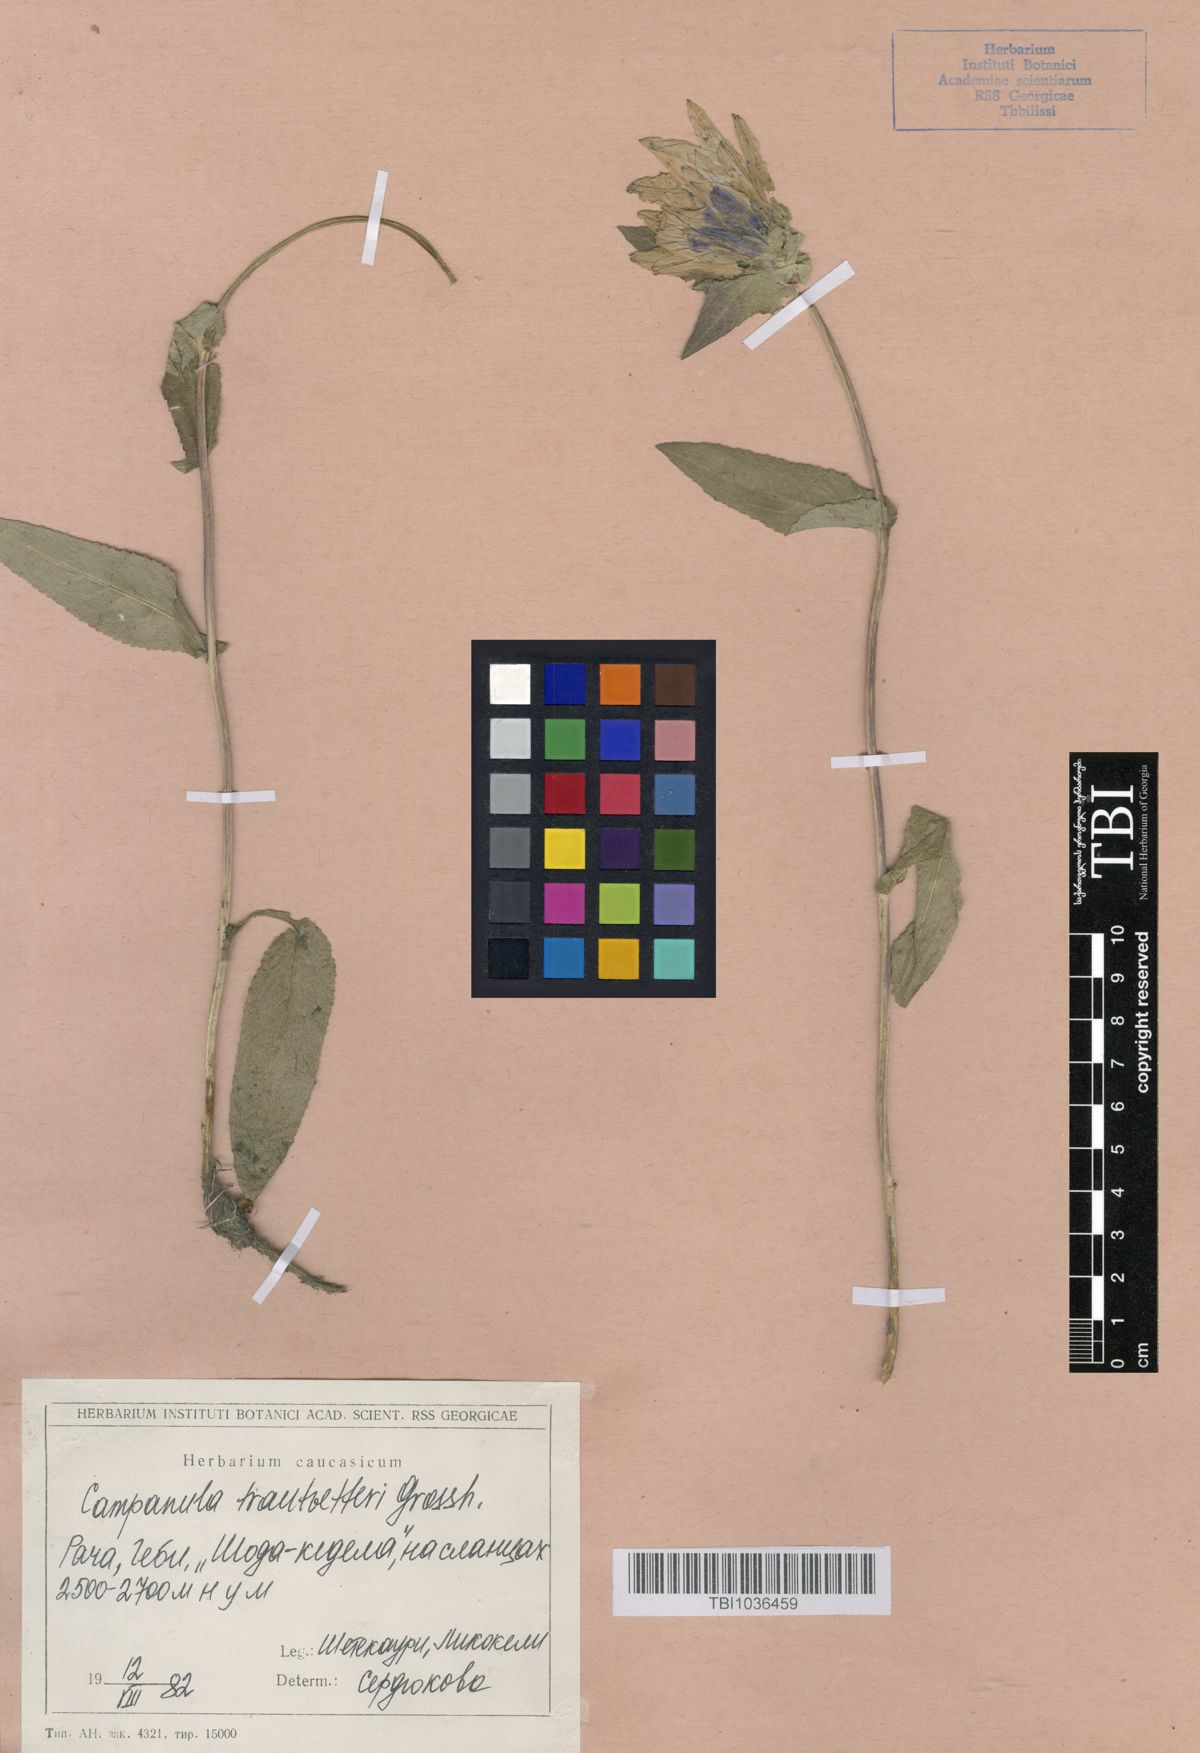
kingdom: Plantae
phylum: Tracheophyta
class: Magnoliopsida
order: Asterales
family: Campanulaceae
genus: Campanula
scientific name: Campanula glomerata
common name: Clustered bellflower
